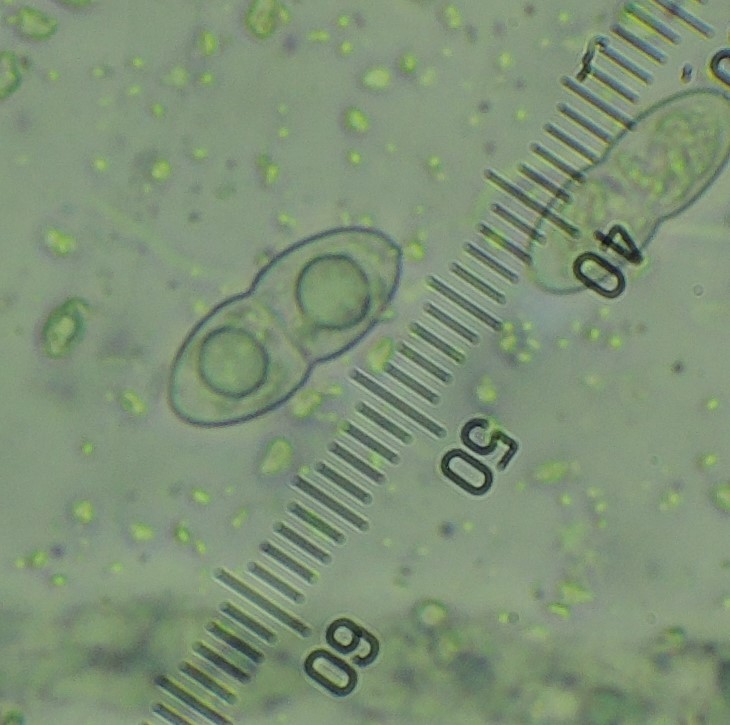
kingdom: Fungi
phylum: Ascomycota
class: Sordariomycetes
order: Diaporthales
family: Sydowiellaceae
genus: Caudospora
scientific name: Caudospora taleola
